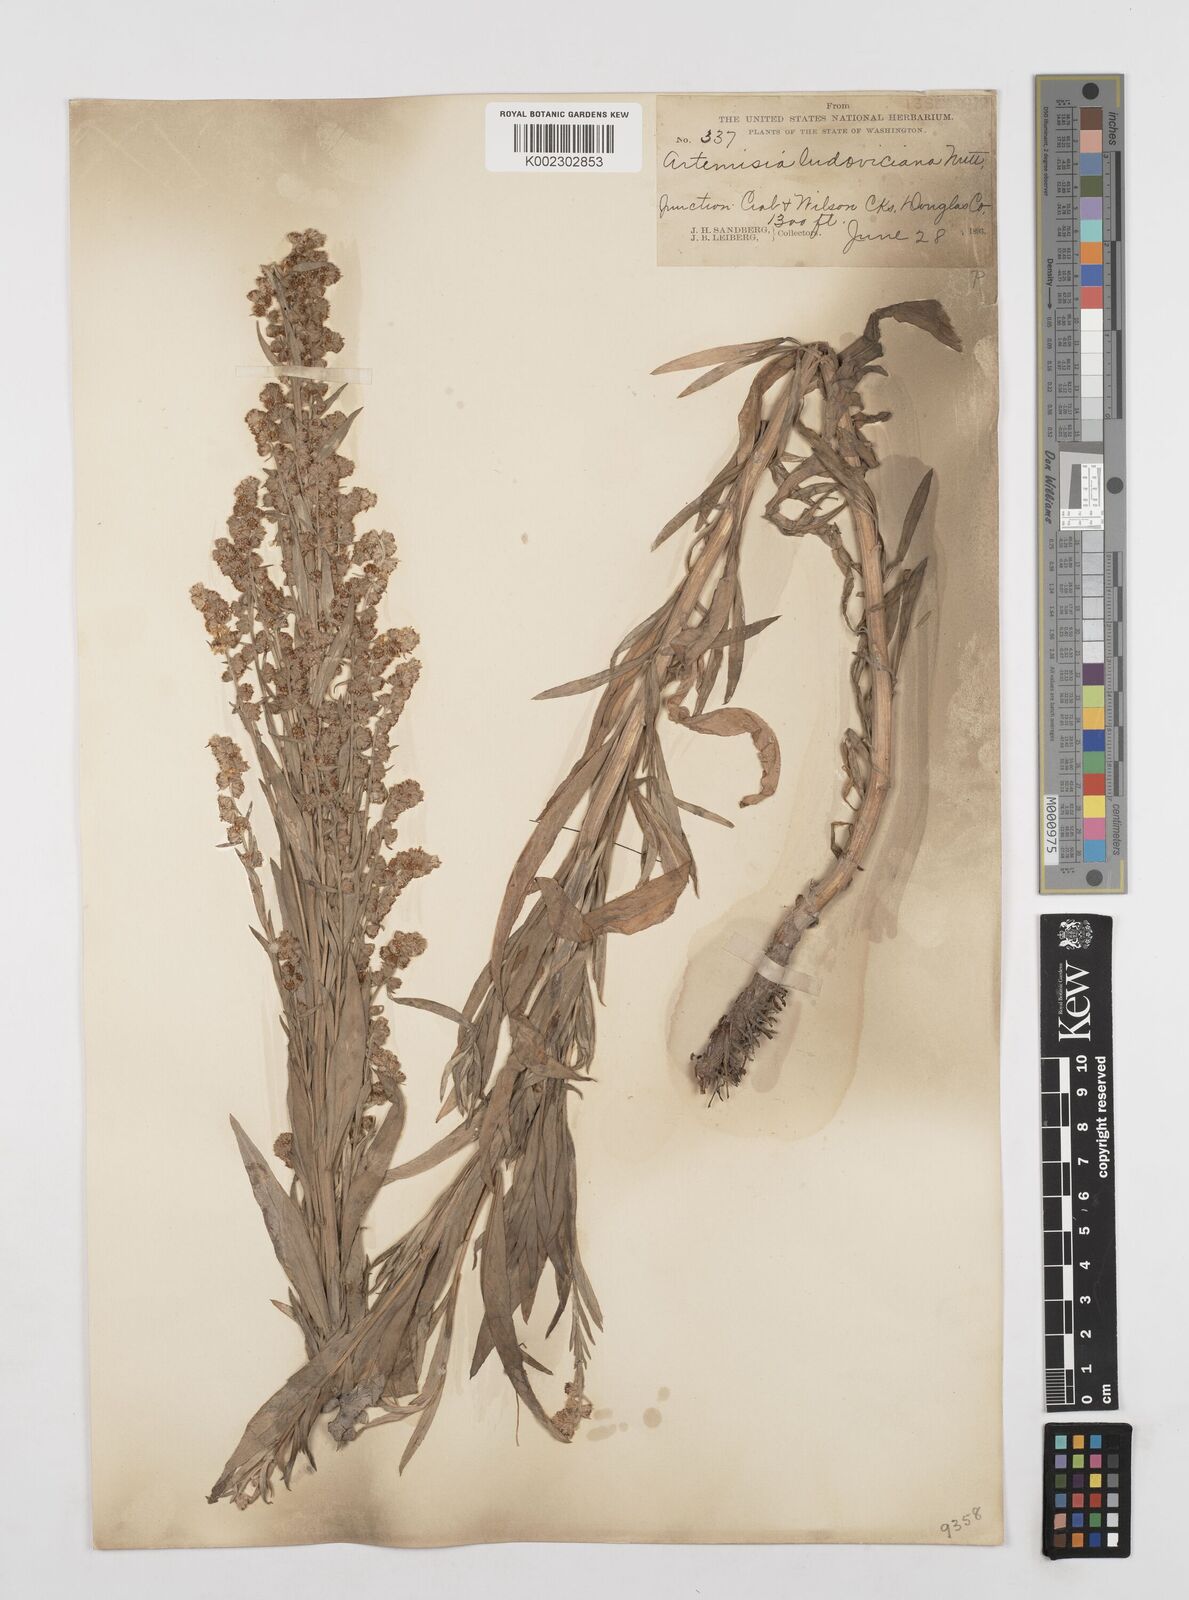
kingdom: Plantae
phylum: Tracheophyta
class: Magnoliopsida
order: Asterales
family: Asteraceae
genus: Artemisia
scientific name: Artemisia ludoviciana
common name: Western mugwort
